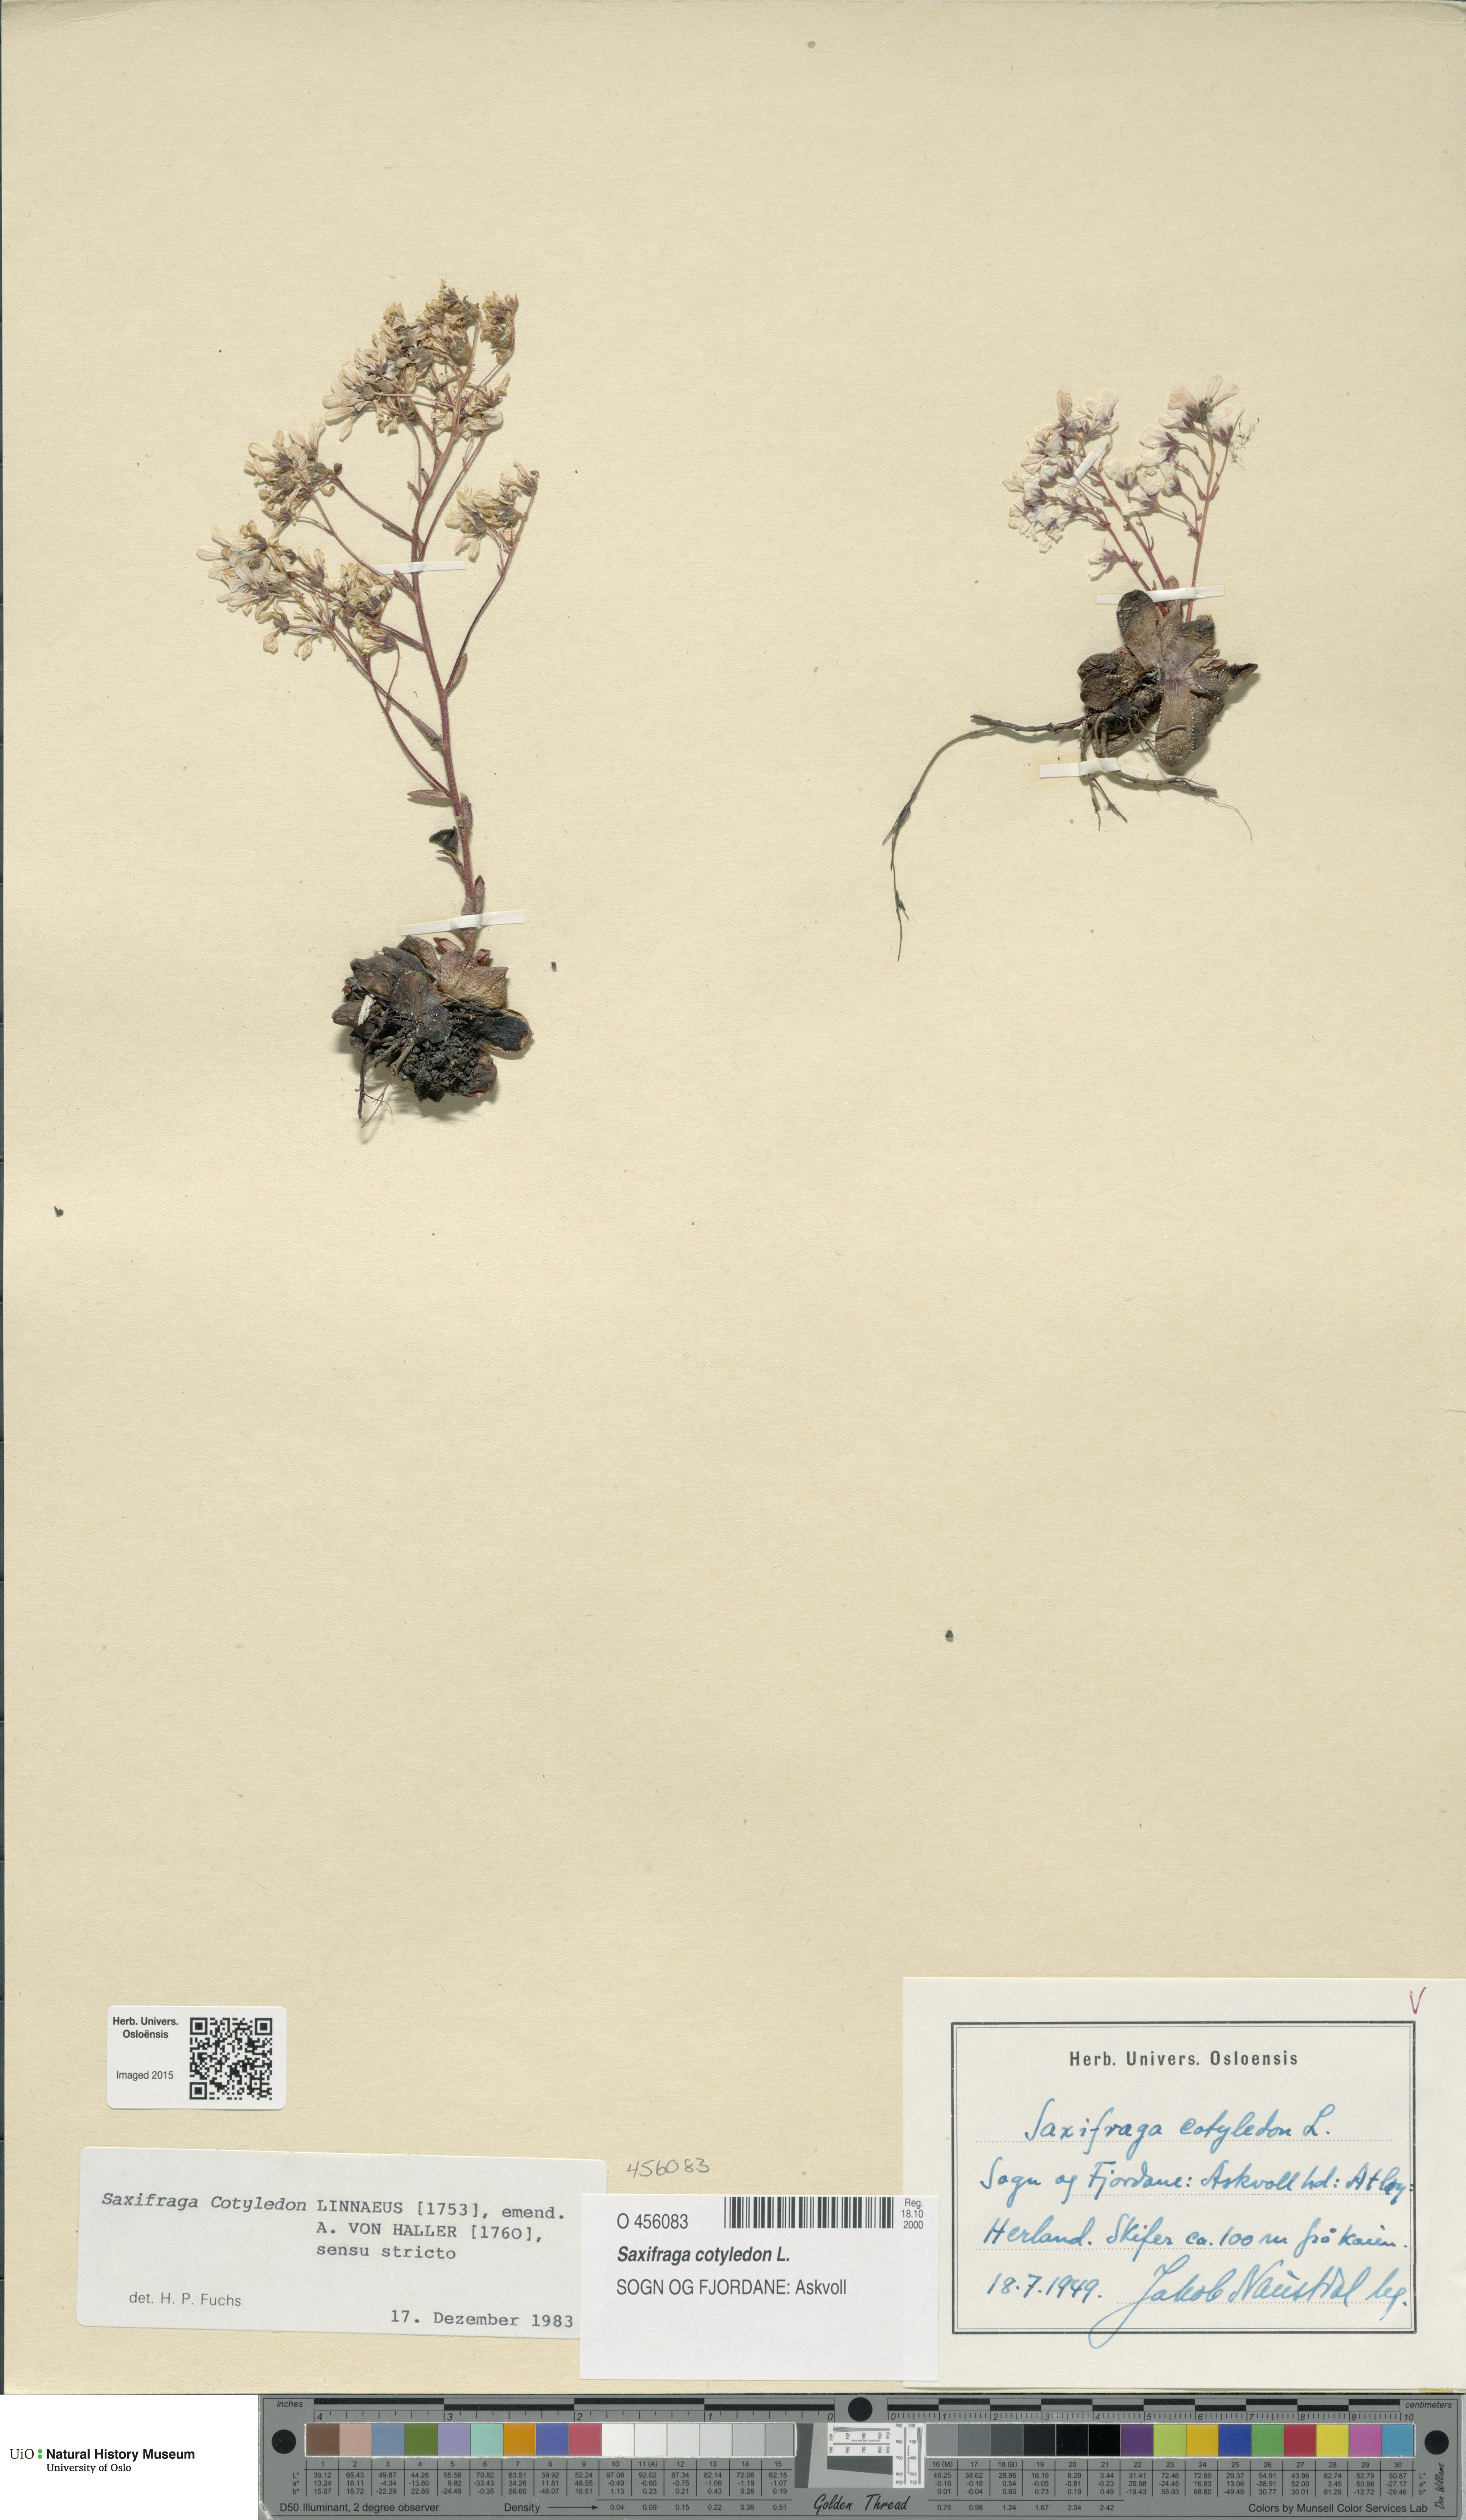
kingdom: Plantae
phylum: Tracheophyta
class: Magnoliopsida
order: Saxifragales
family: Saxifragaceae
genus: Saxifraga
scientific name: Saxifraga cotyledon
